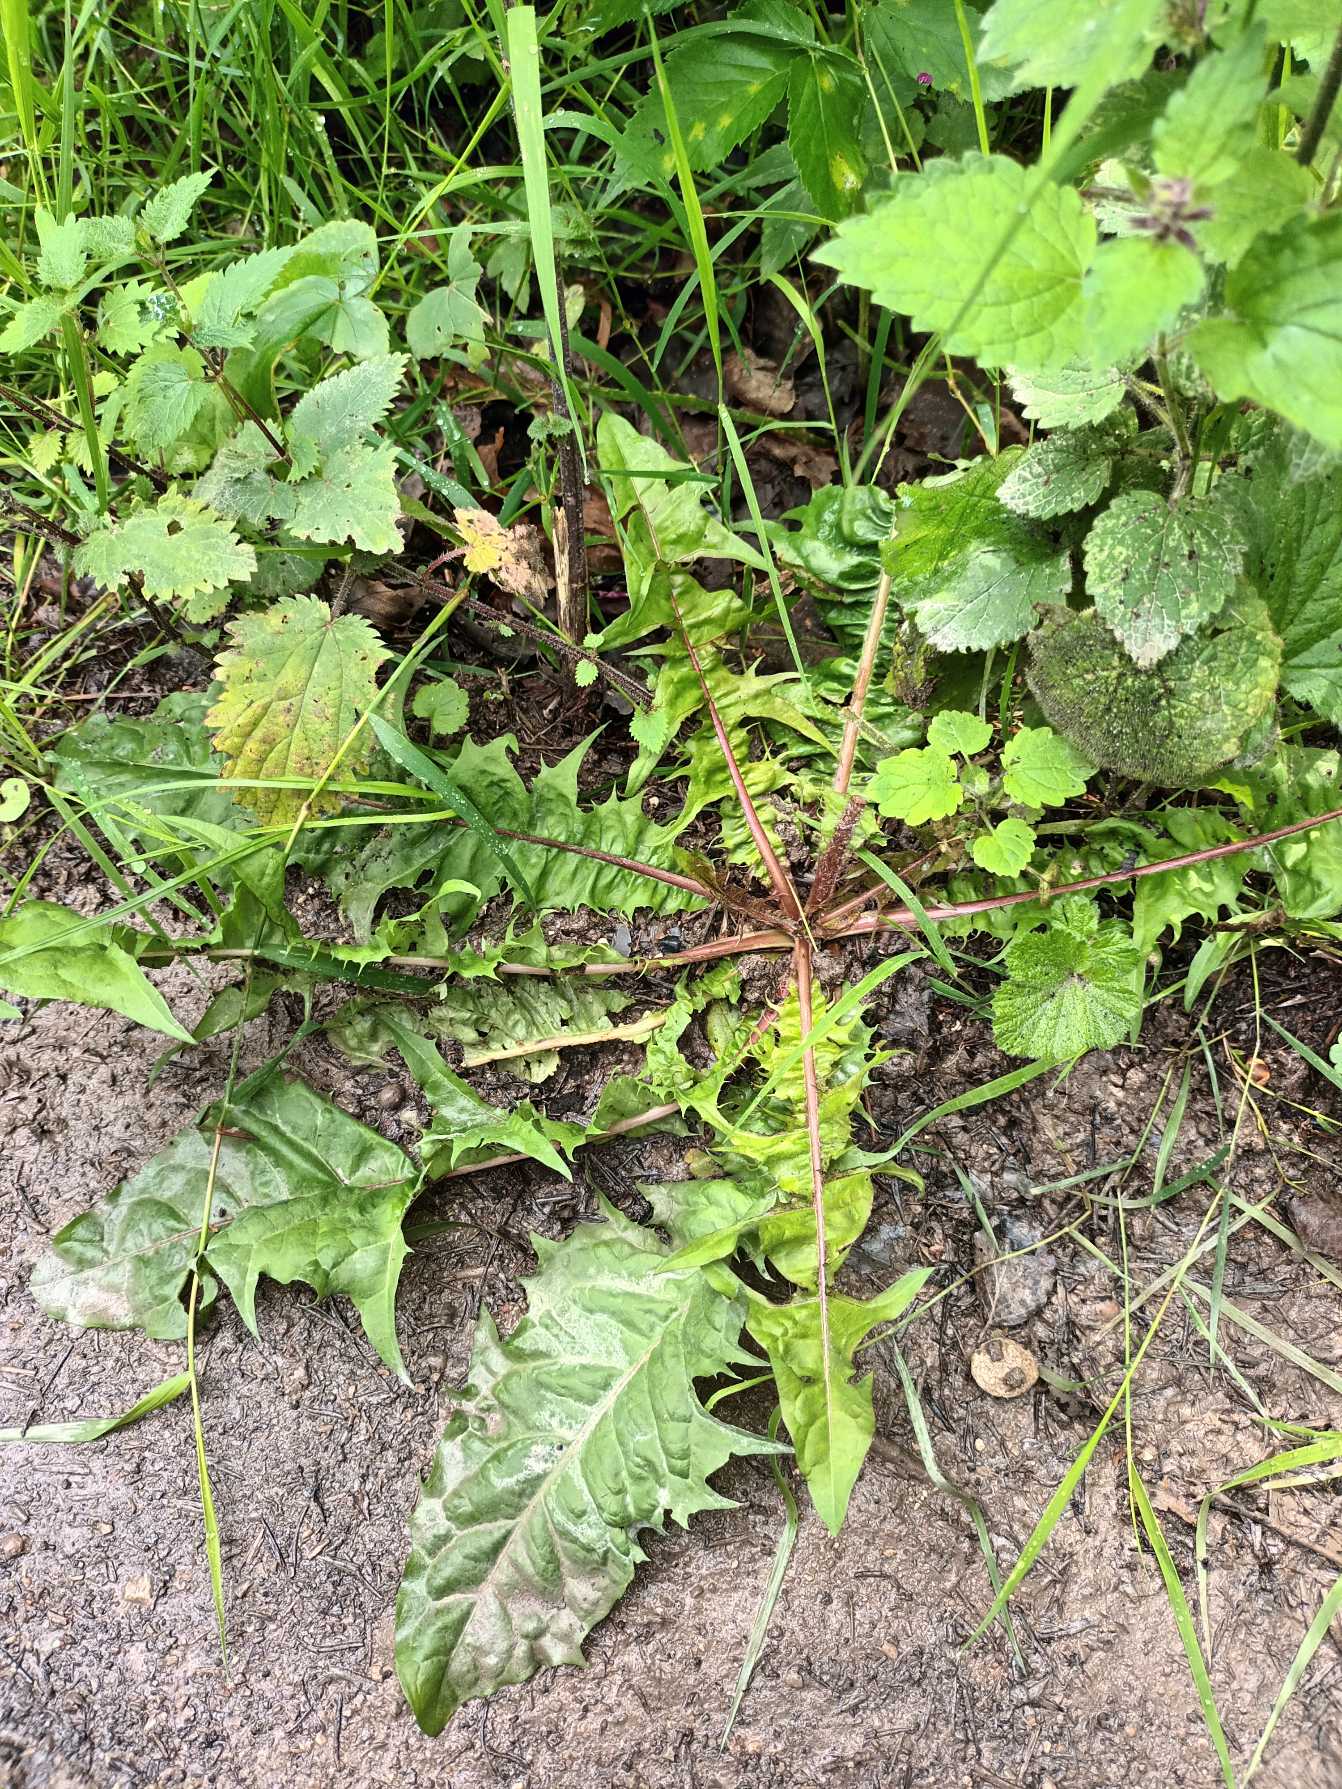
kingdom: Plantae
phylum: Tracheophyta
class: Magnoliopsida
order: Asterales
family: Asteraceae
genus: Taraxacum
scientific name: Taraxacum
